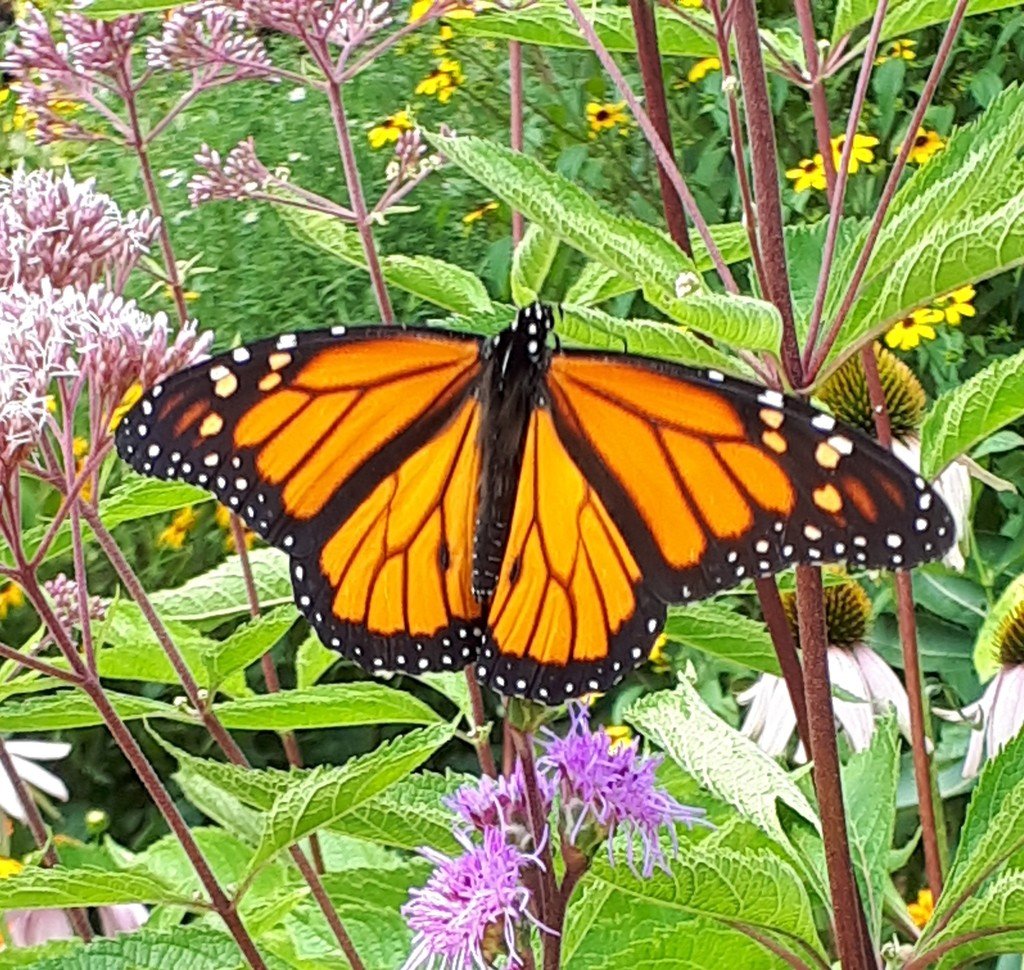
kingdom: Animalia
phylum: Arthropoda
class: Insecta
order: Lepidoptera
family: Nymphalidae
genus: Danaus
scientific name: Danaus plexippus
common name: Monarch
